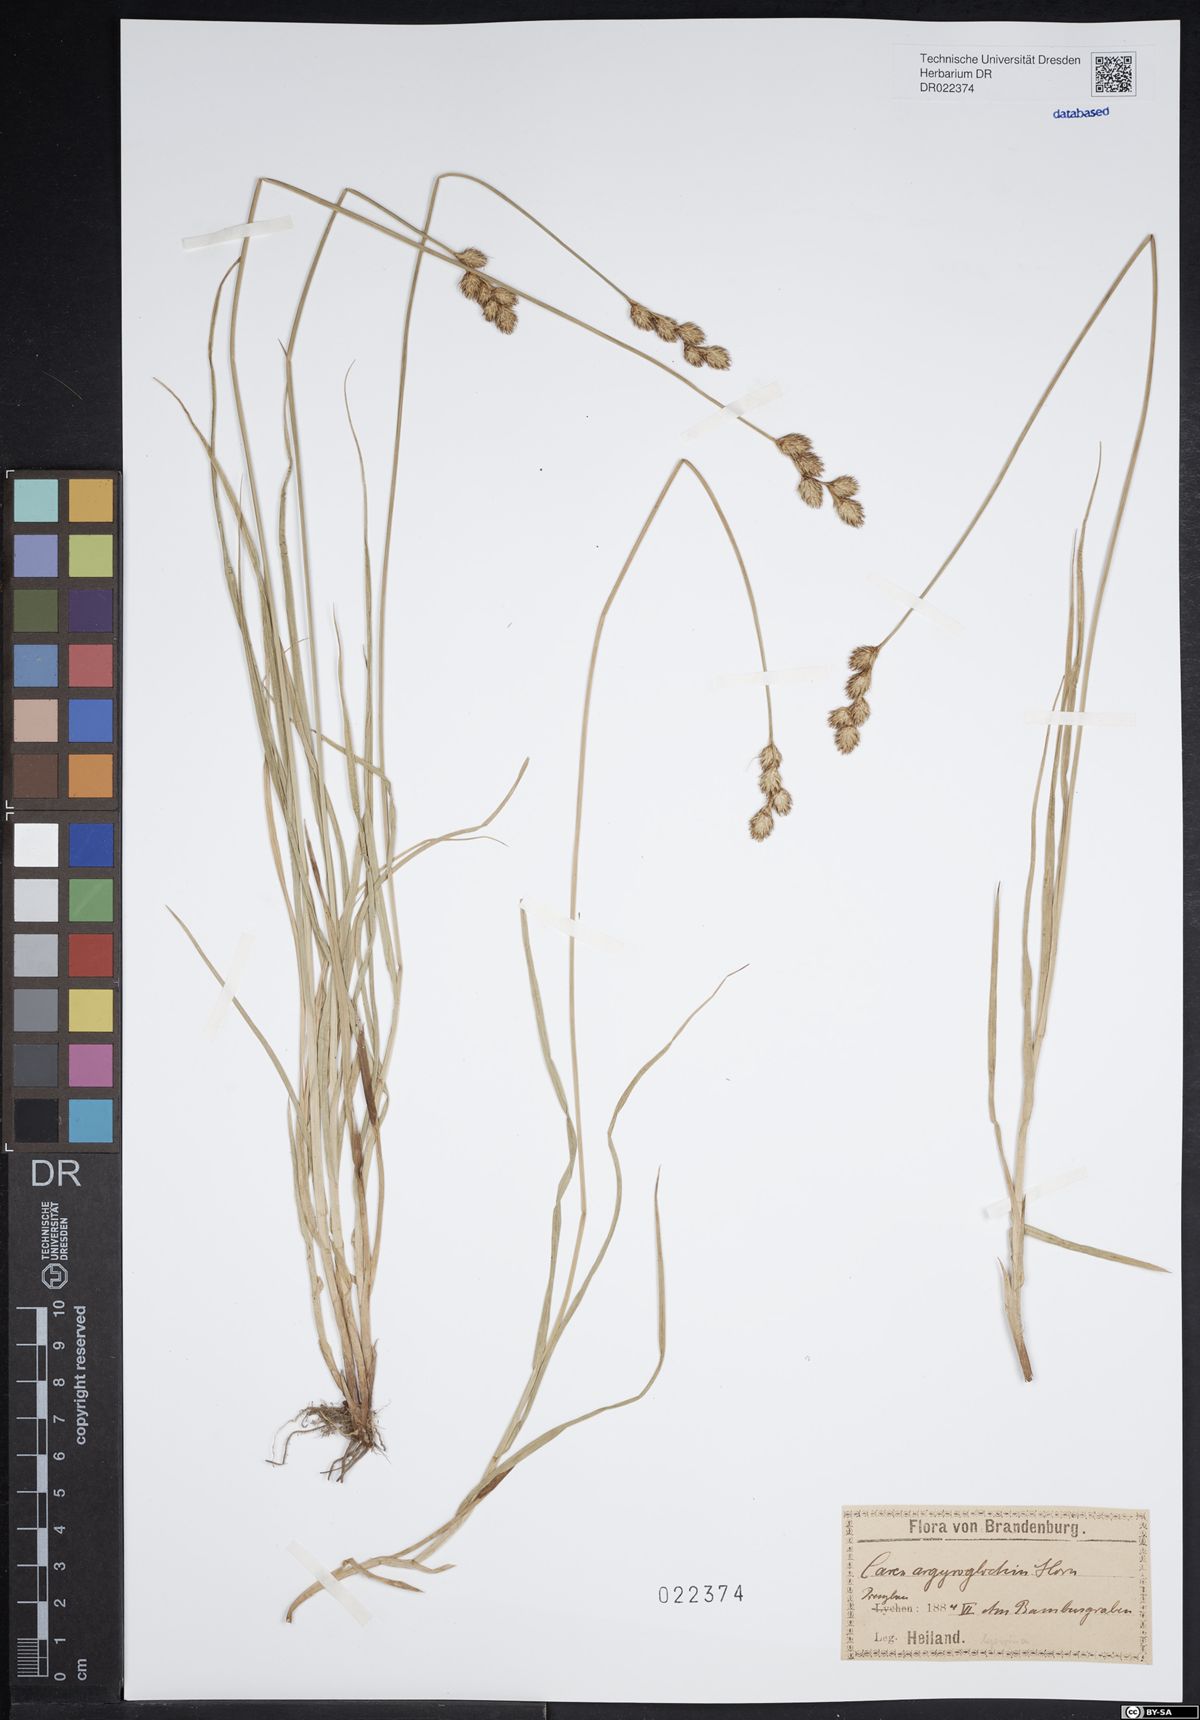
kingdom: Plantae
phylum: Tracheophyta
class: Liliopsida
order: Poales
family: Cyperaceae
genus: Carex
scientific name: Carex leporina
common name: Oval sedge
